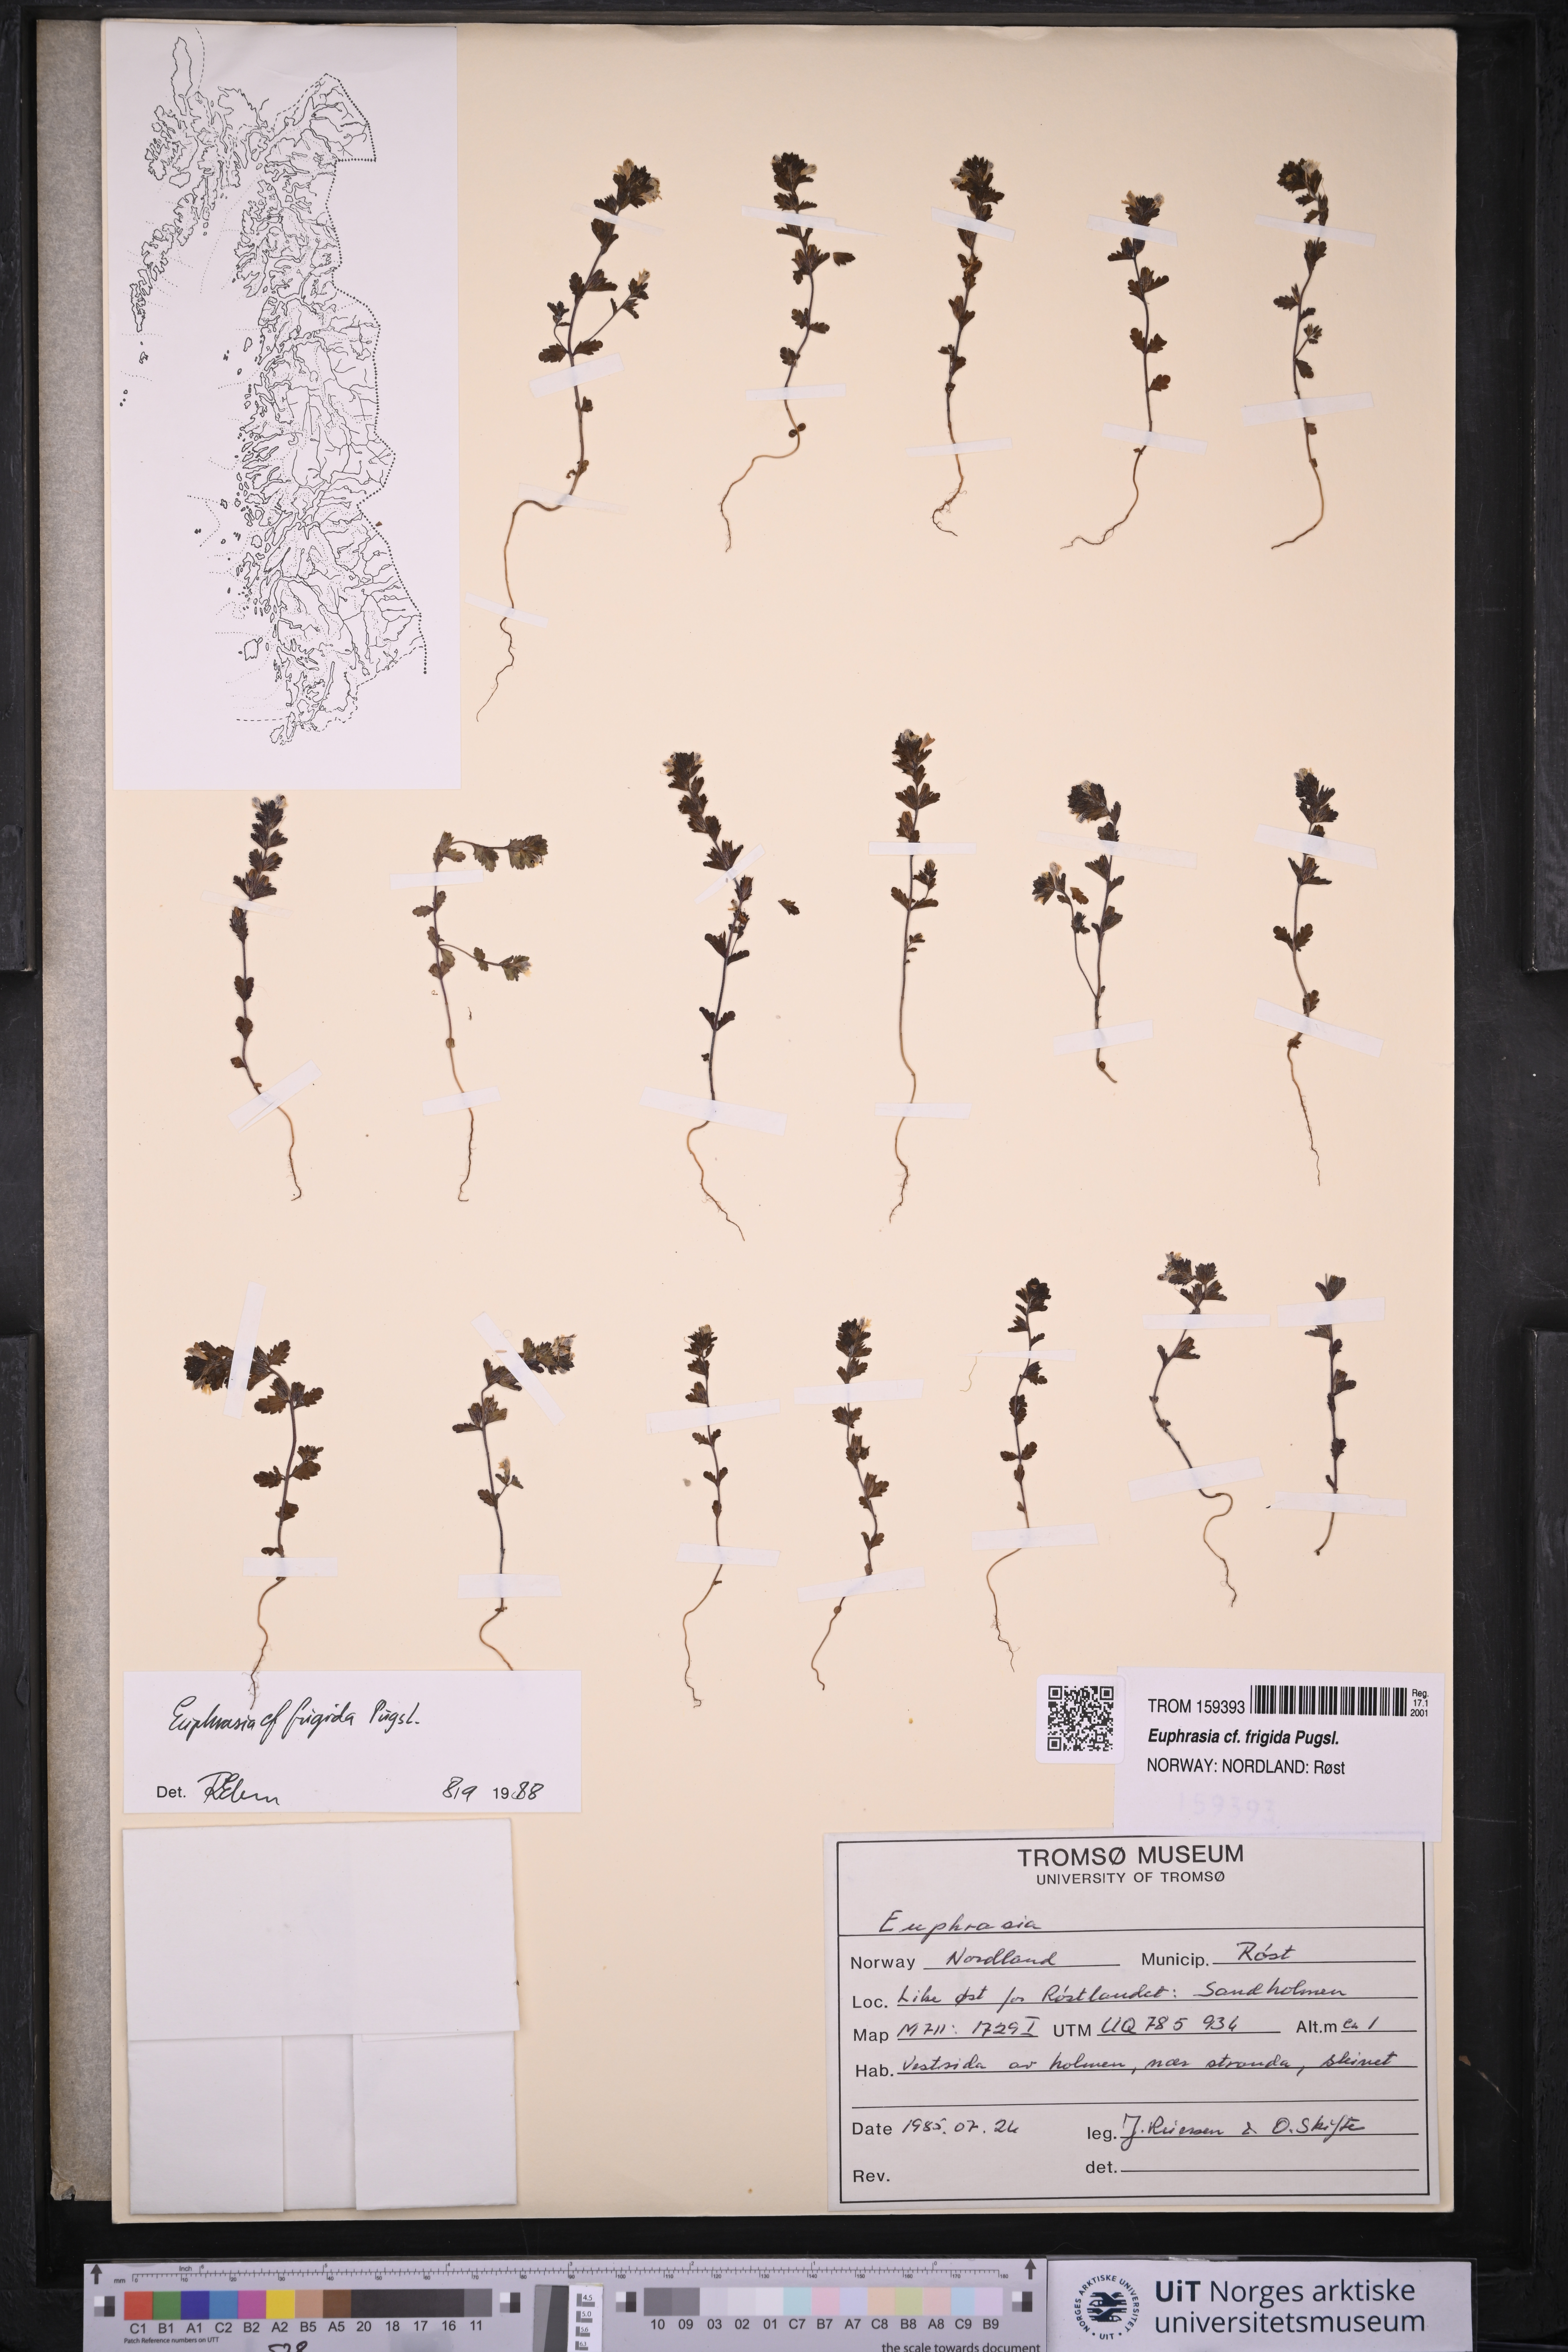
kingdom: Plantae
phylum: Tracheophyta
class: Magnoliopsida
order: Lamiales
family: Orobanchaceae
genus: Euphrasia
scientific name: Euphrasia frigida
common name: An eyebright
